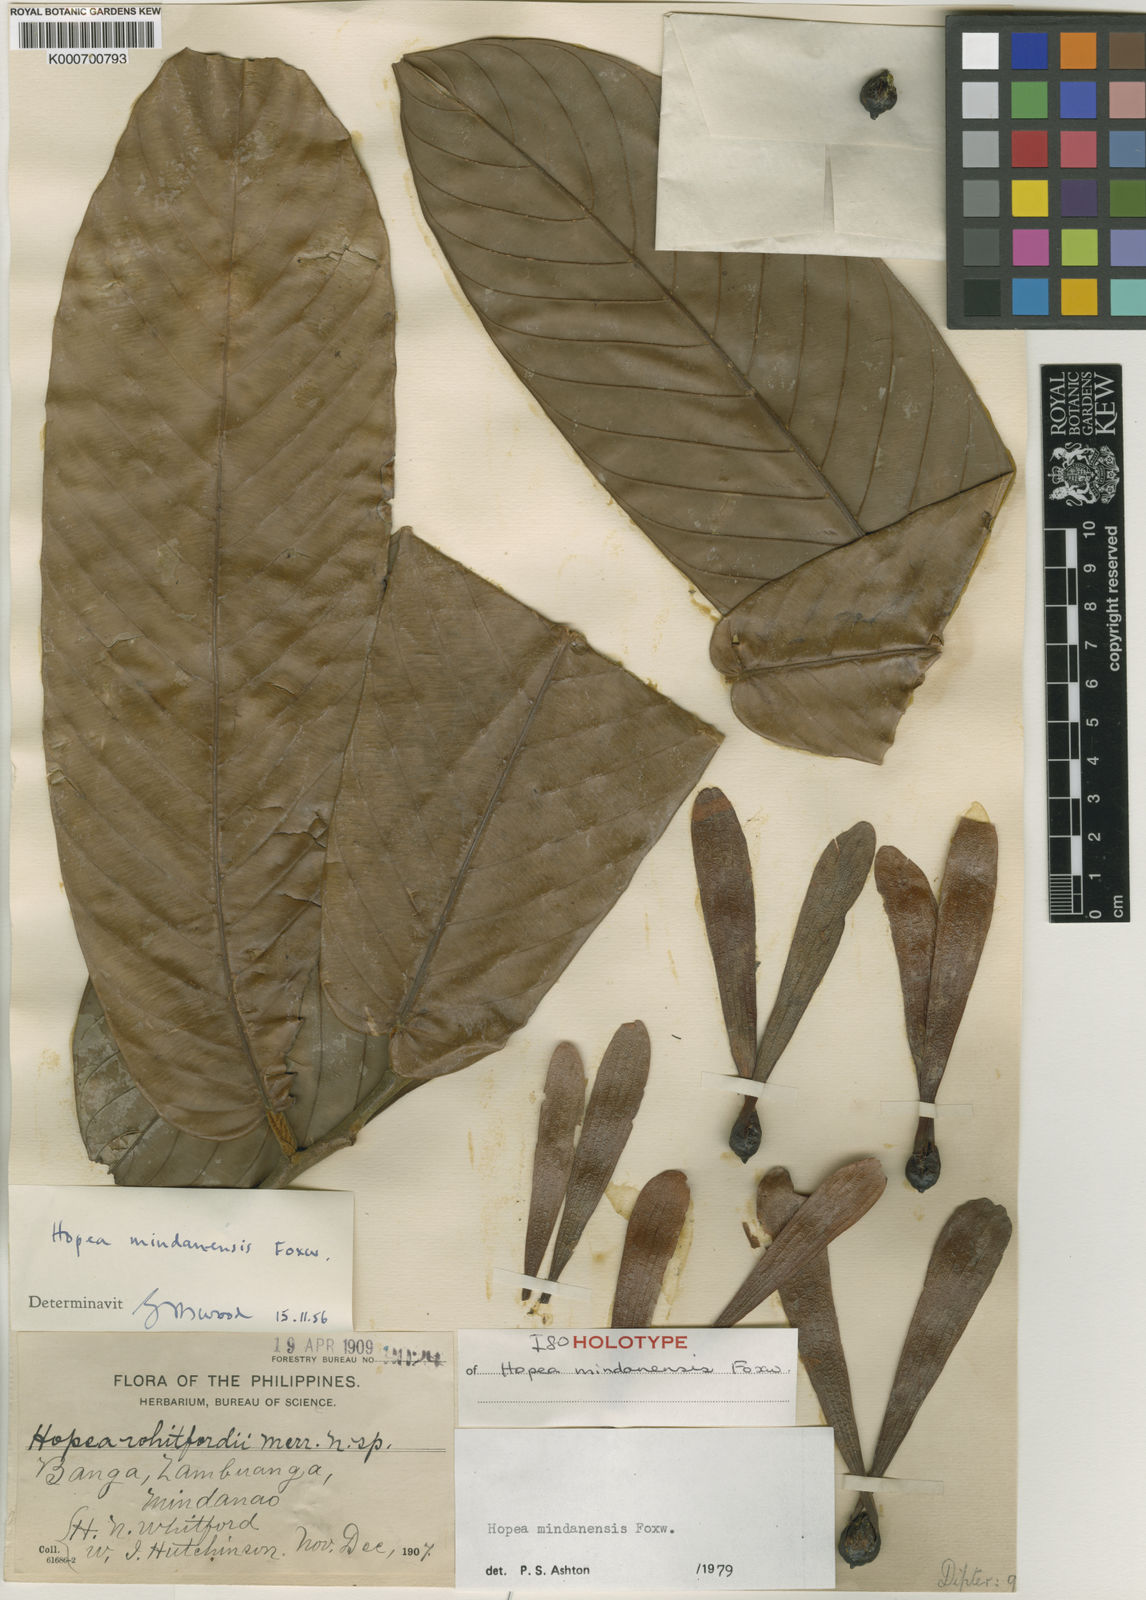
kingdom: Plantae
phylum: Tracheophyta
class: Magnoliopsida
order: Malvales
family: Dipterocarpaceae
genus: Hopea
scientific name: Hopea mindanensis
